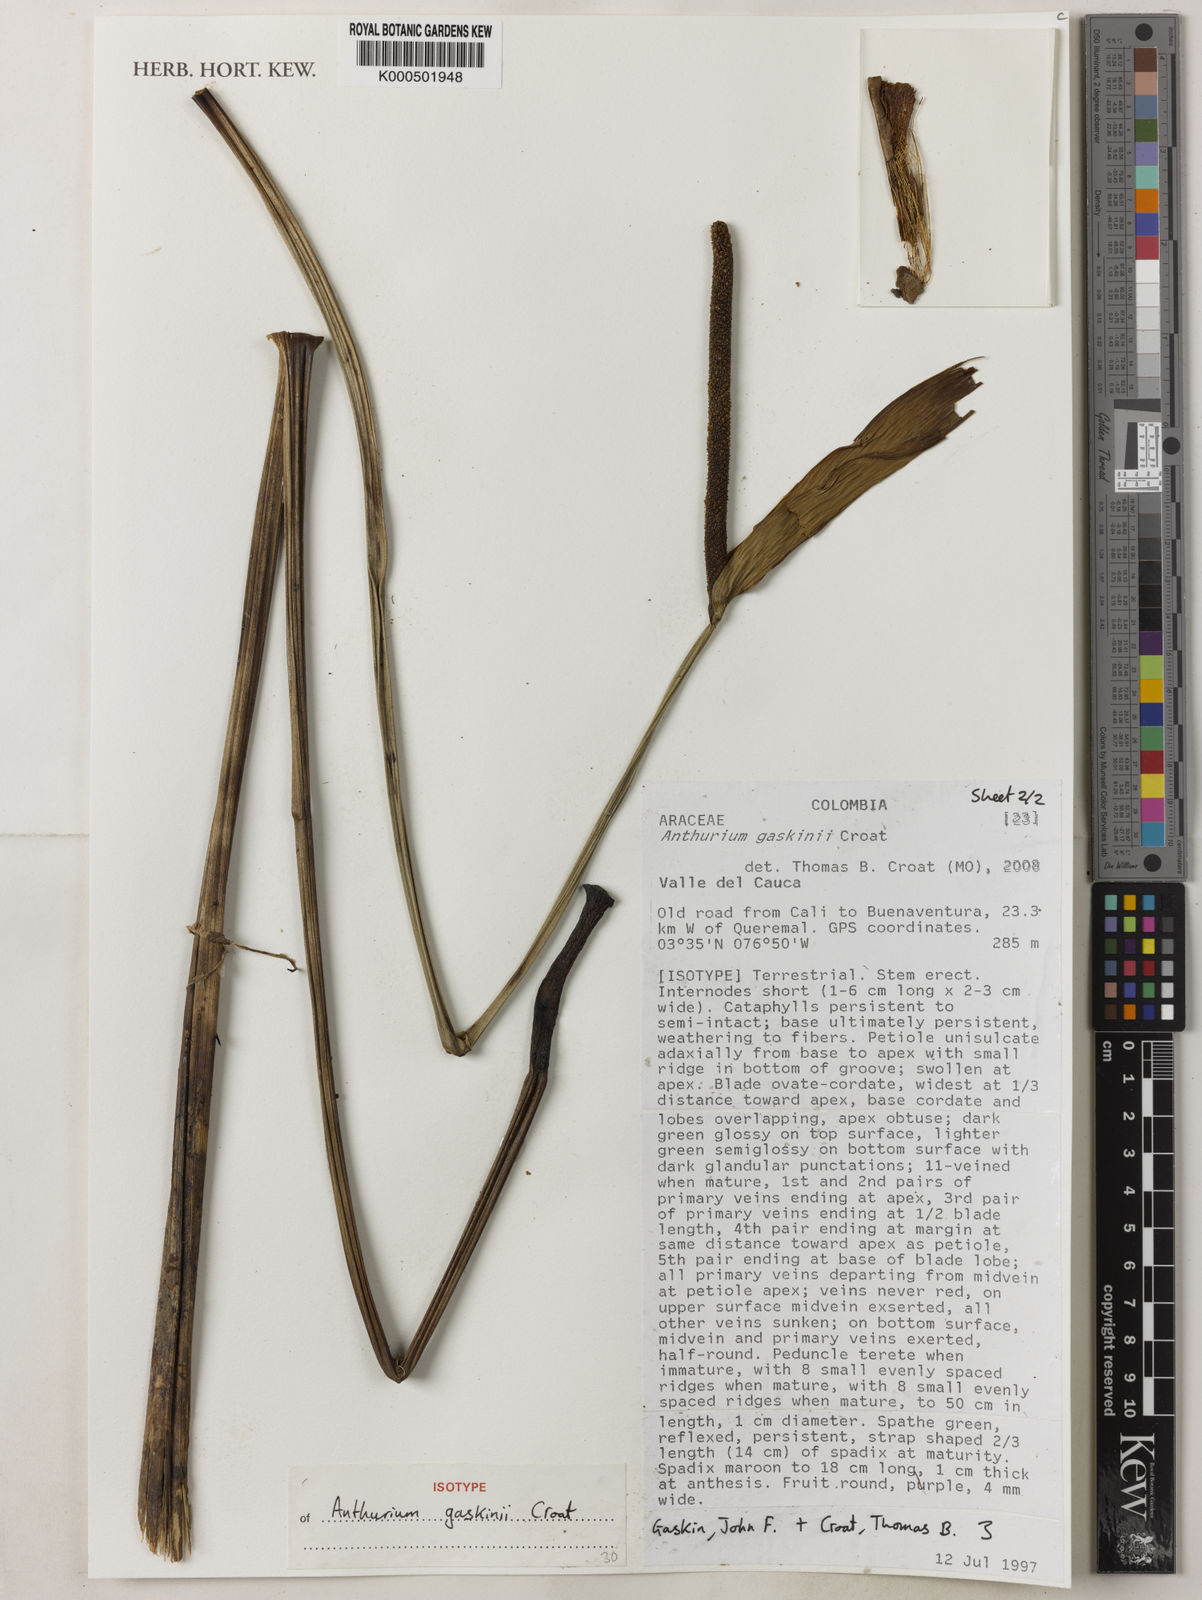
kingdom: Plantae
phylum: Tracheophyta
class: Liliopsida
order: Alismatales
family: Araceae
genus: Anthurium
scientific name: Anthurium gaskinii
